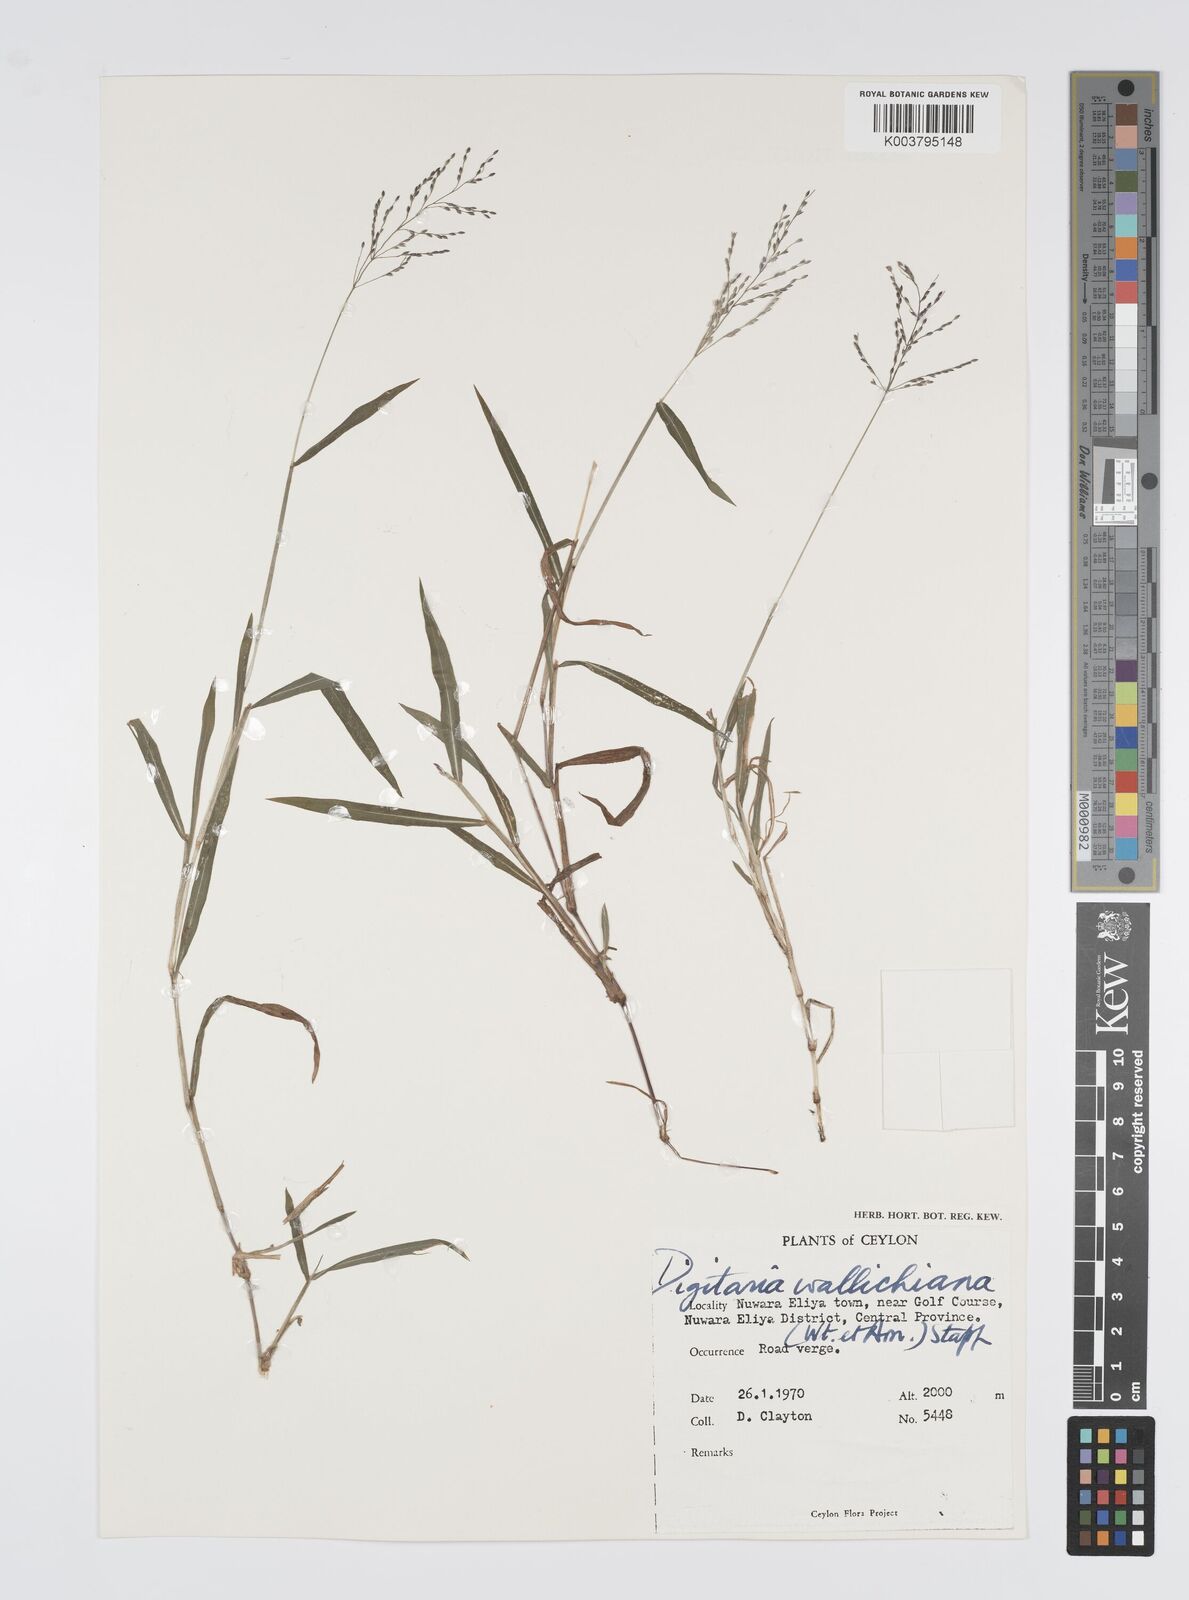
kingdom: Plantae
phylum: Tracheophyta
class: Liliopsida
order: Poales
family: Poaceae
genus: Digitaria
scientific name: Digitaria wallichiana
